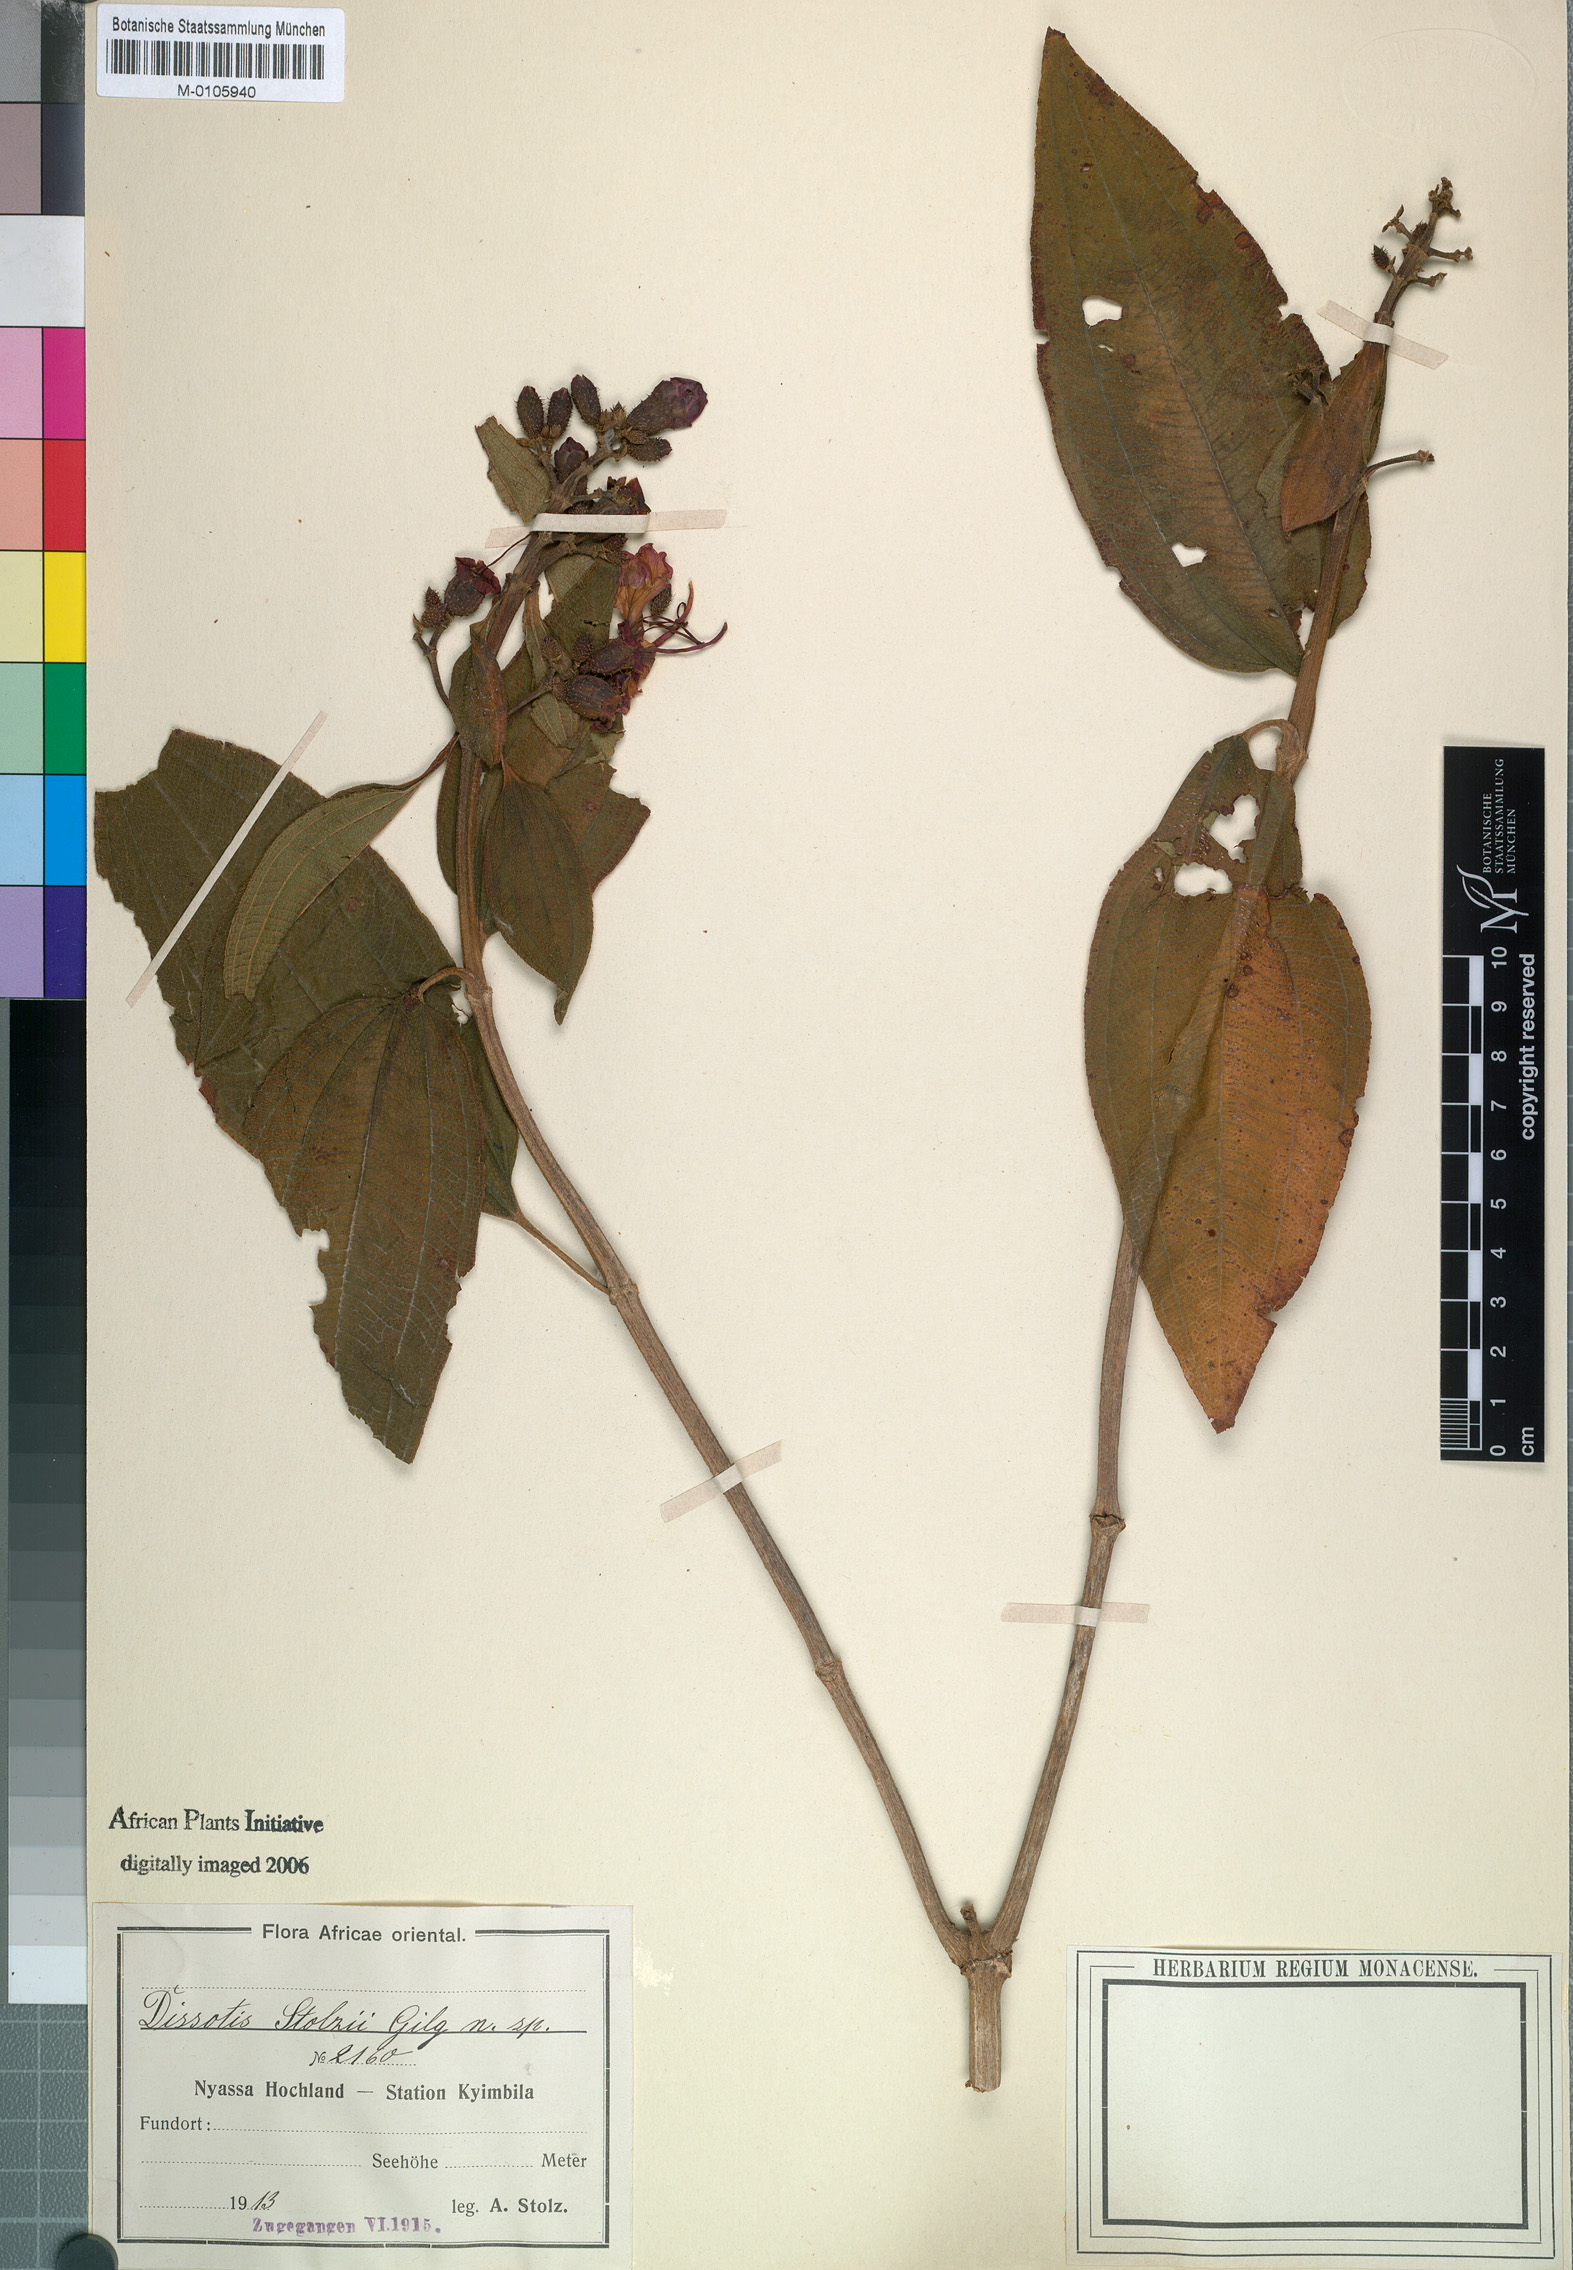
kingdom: Plantae
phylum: Tracheophyta
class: Magnoliopsida
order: Myrtales
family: Melastomataceae
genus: Dissotis
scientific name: Dissotis
